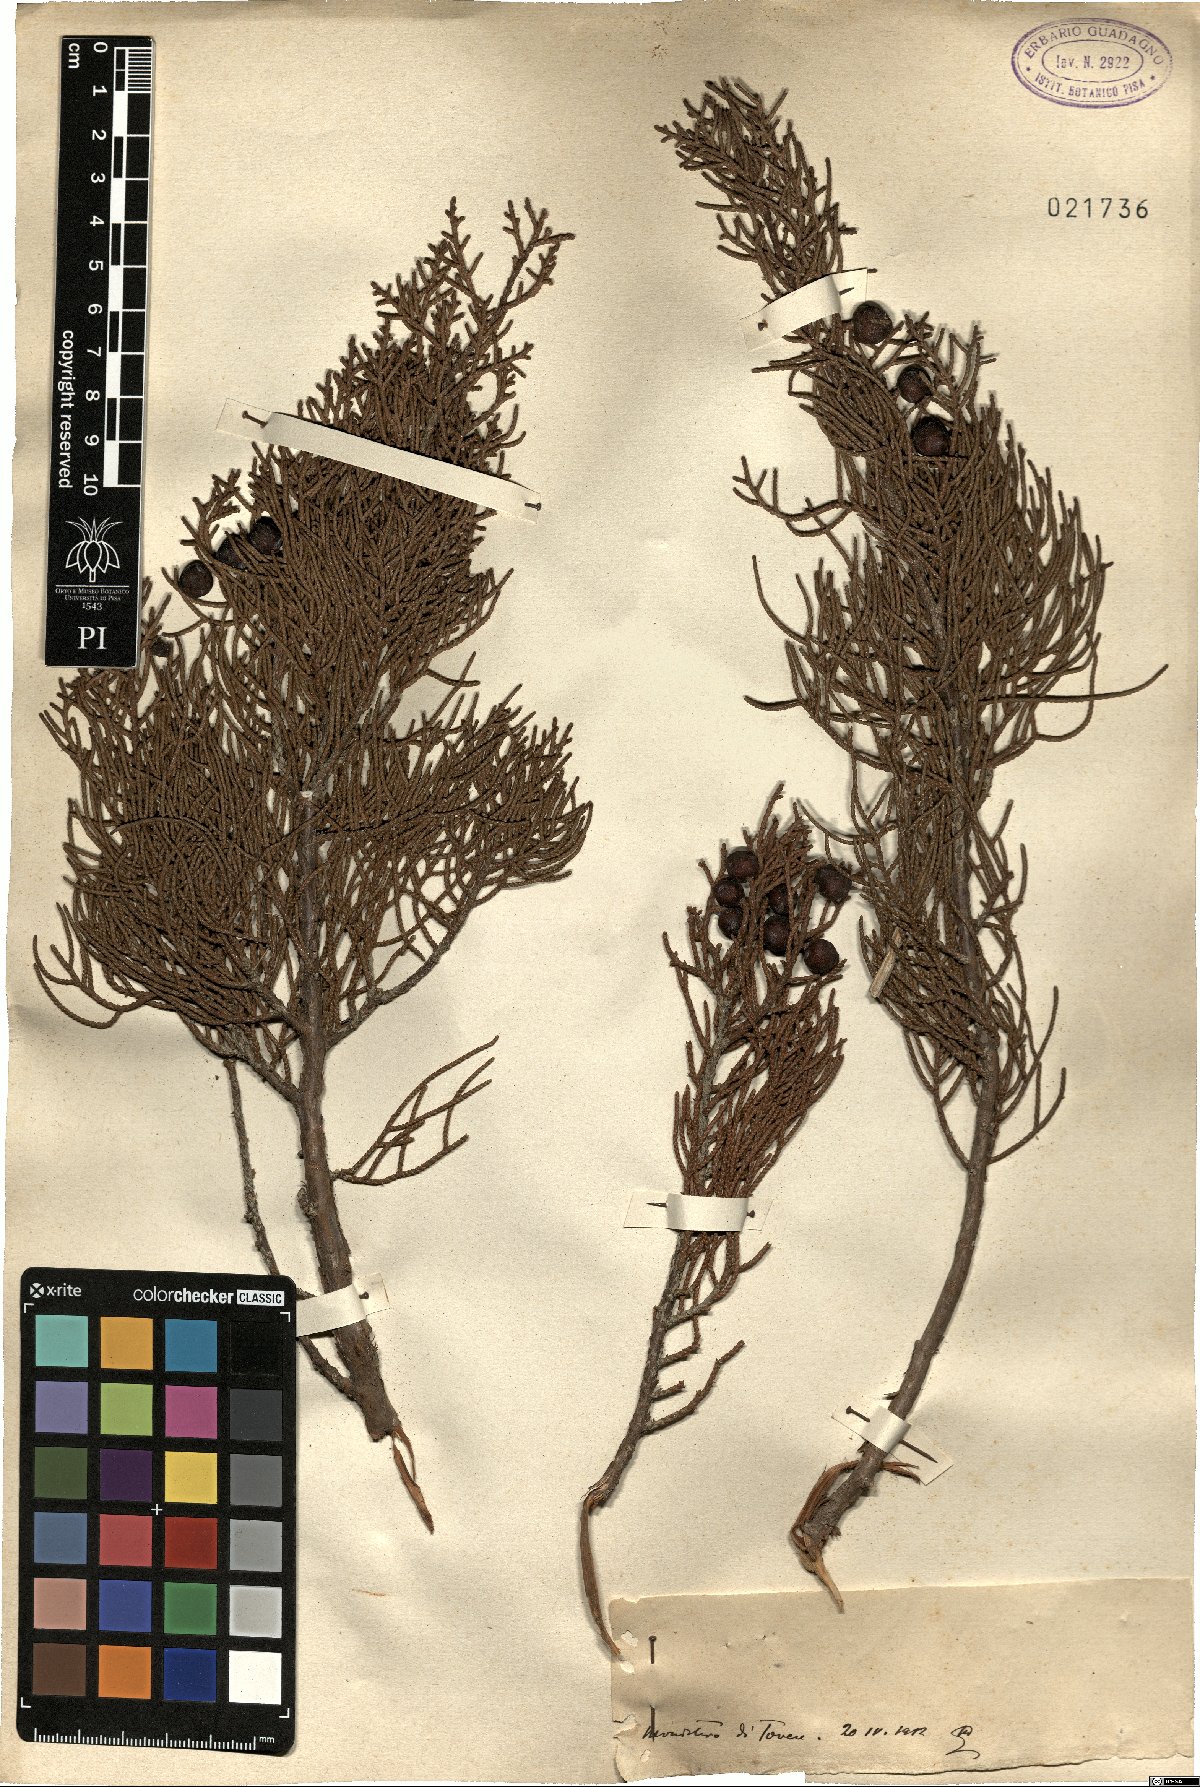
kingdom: Plantae
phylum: Tracheophyta
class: Pinopsida
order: Pinales
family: Cupressaceae
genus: Juniperus
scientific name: Juniperus phoenicea
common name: Phoenician juniper
